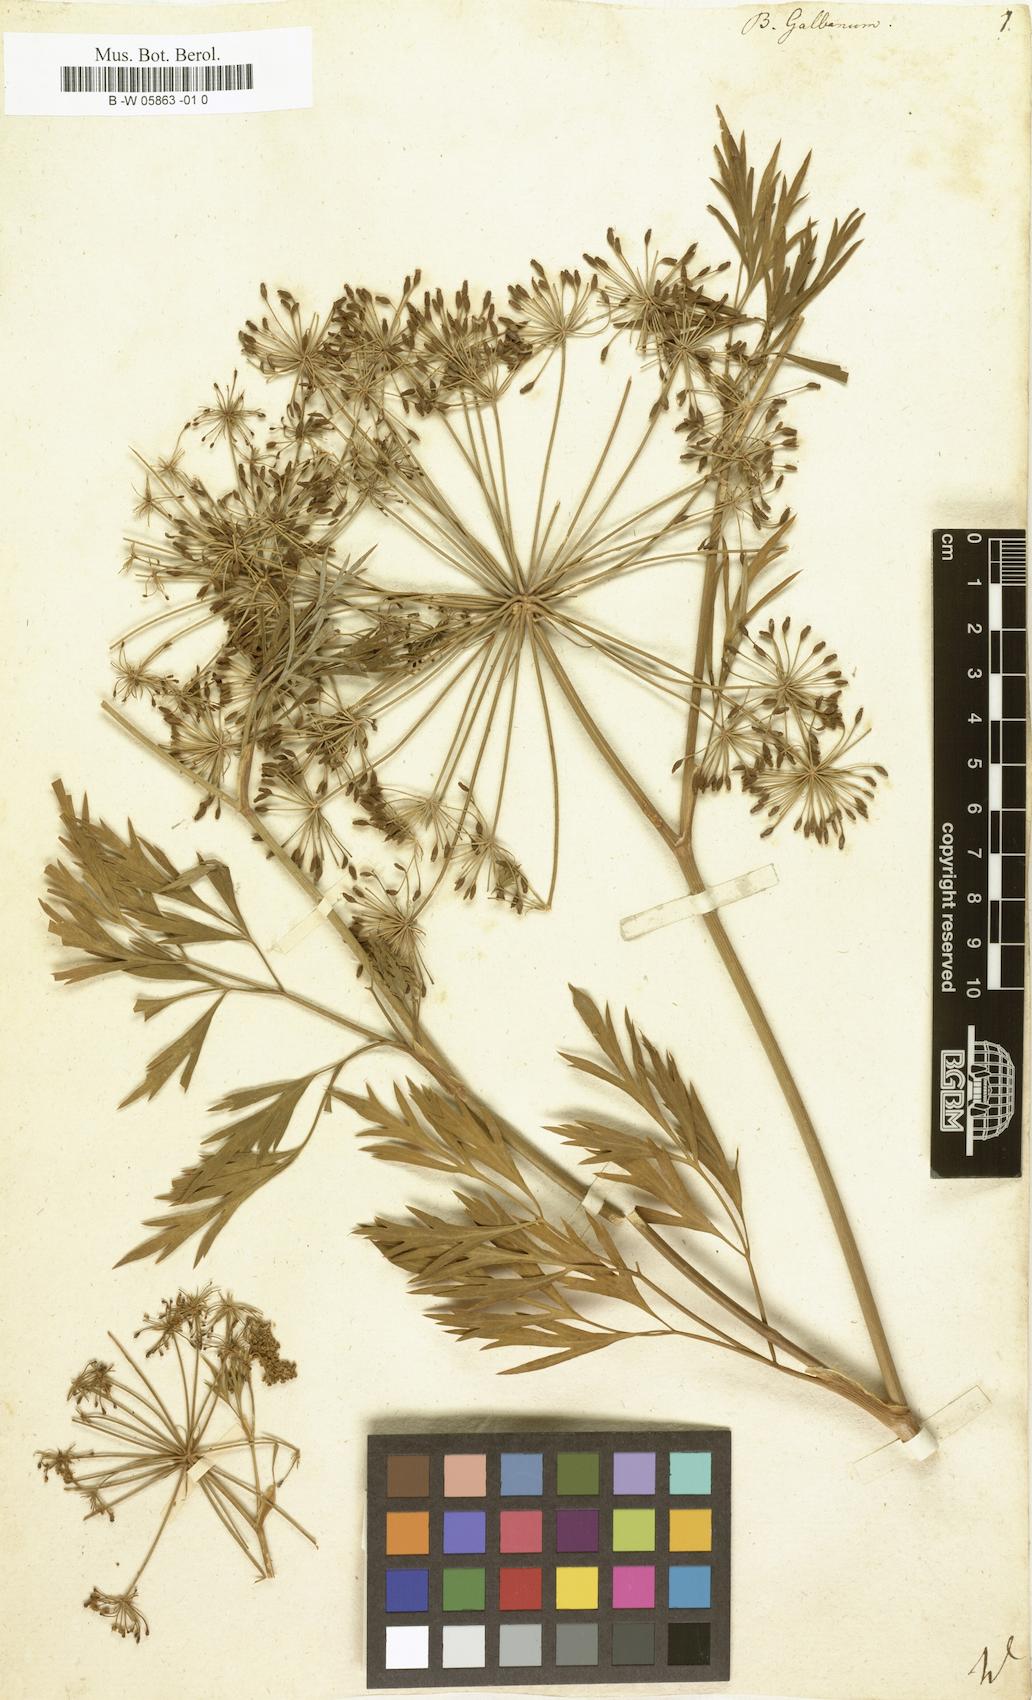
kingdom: Plantae
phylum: Tracheophyta
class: Magnoliopsida
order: Apiales
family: Apiaceae
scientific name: Apiaceae
